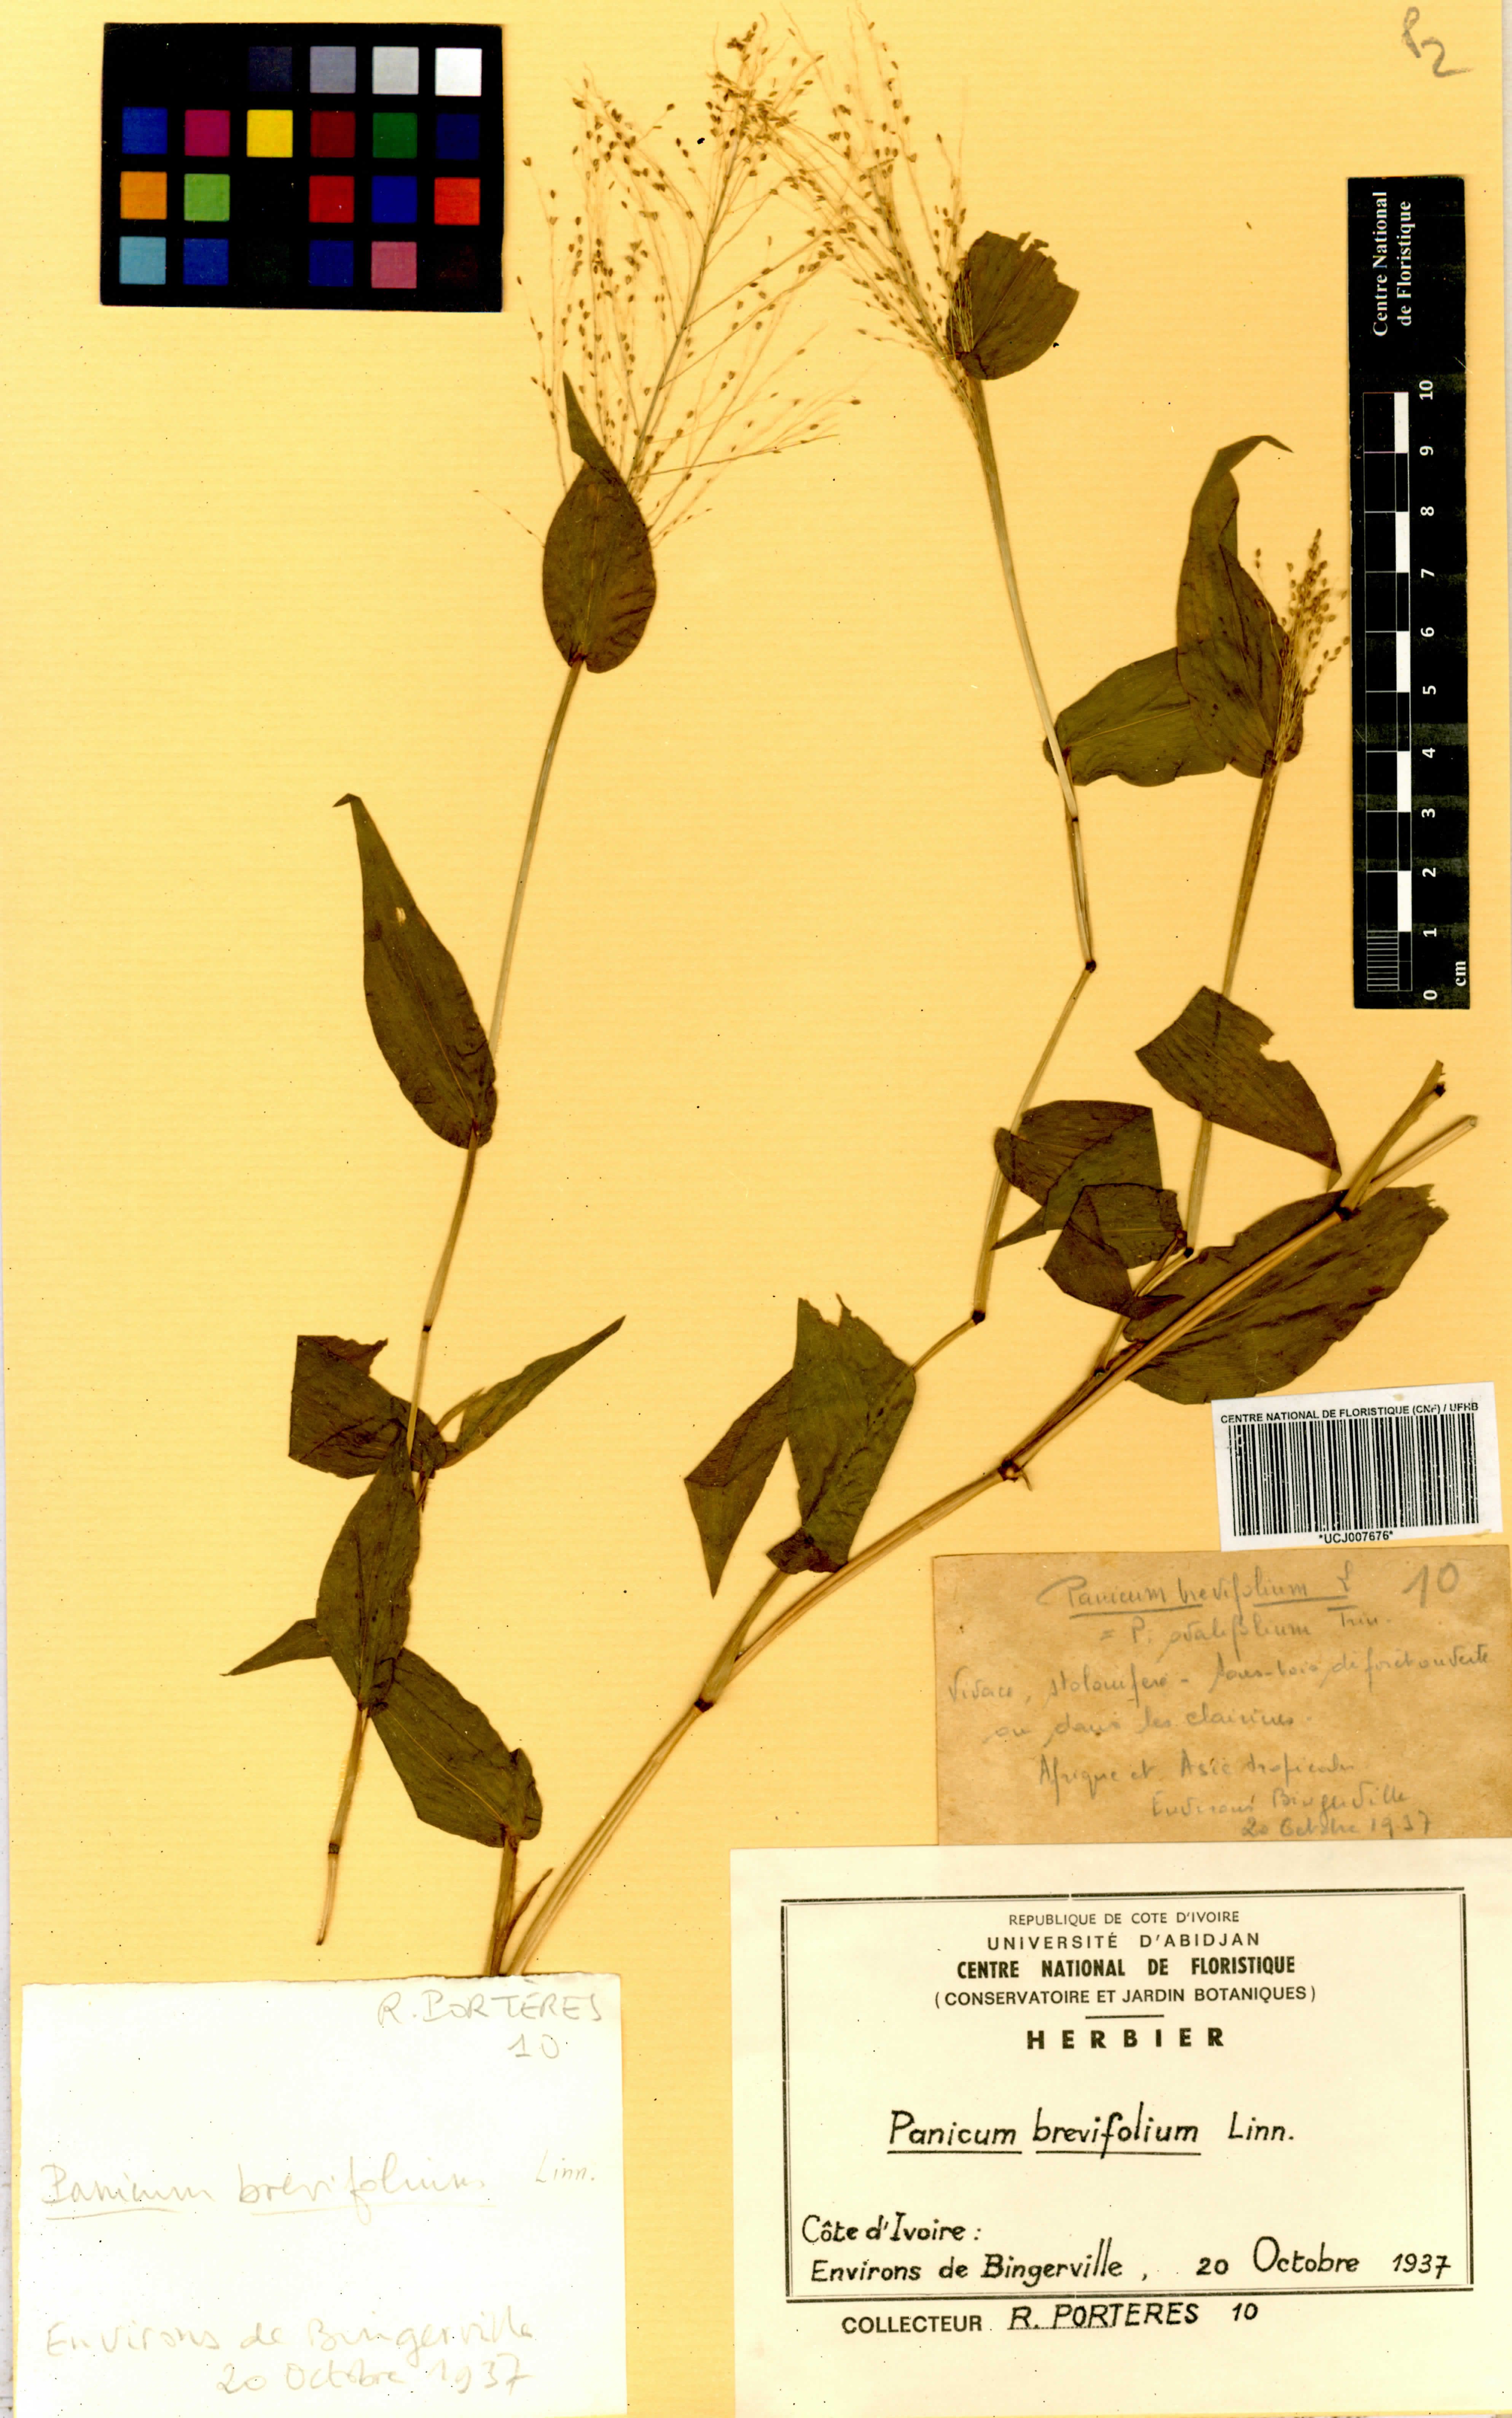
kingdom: Plantae
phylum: Tracheophyta
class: Liliopsida
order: Poales
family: Poaceae
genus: Panicum
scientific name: Panicum brevifolium
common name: Shortleaf panic grass
